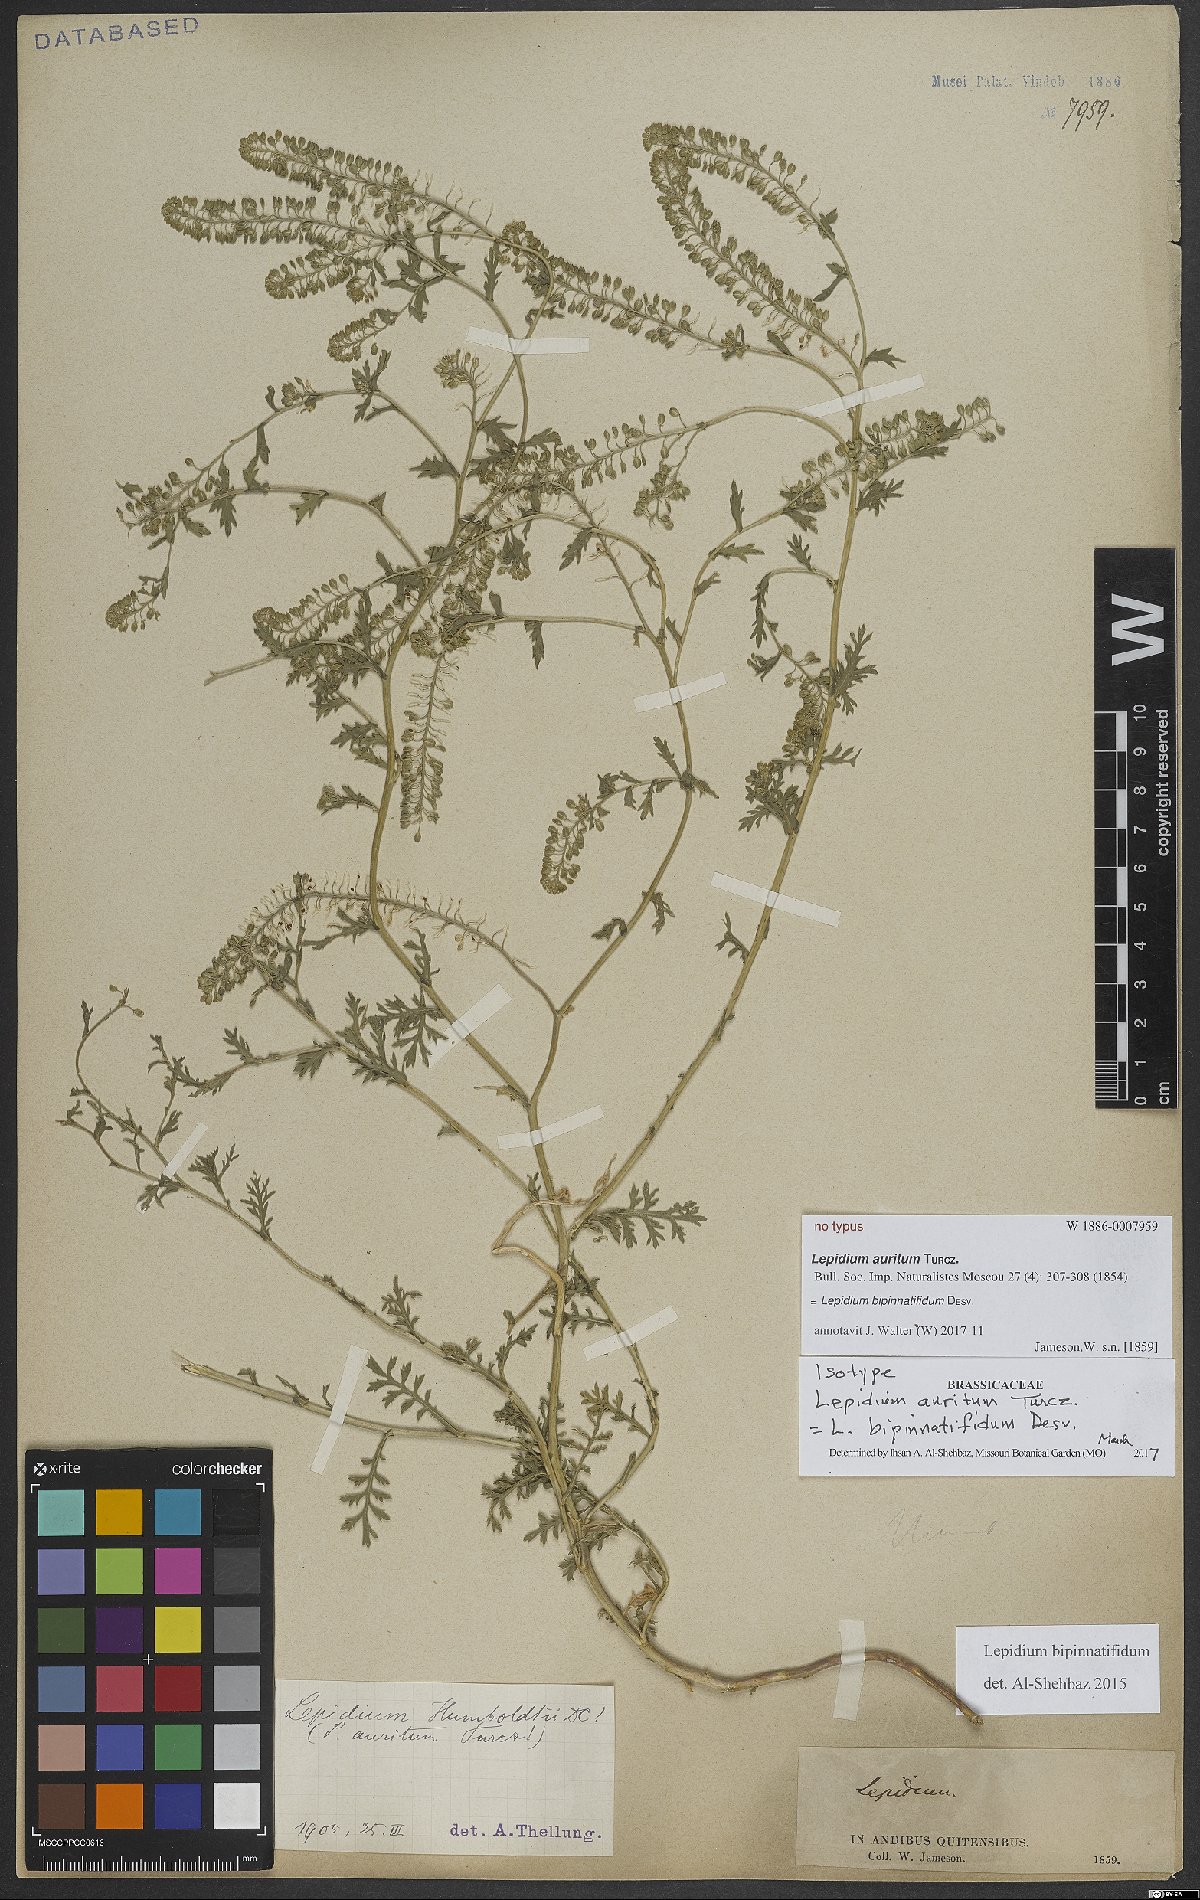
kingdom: Plantae
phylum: Tracheophyta
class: Magnoliopsida
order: Brassicales
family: Brassicaceae
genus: Lepidium
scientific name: Lepidium bipinnatifidum
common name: Wayside pepperwort
